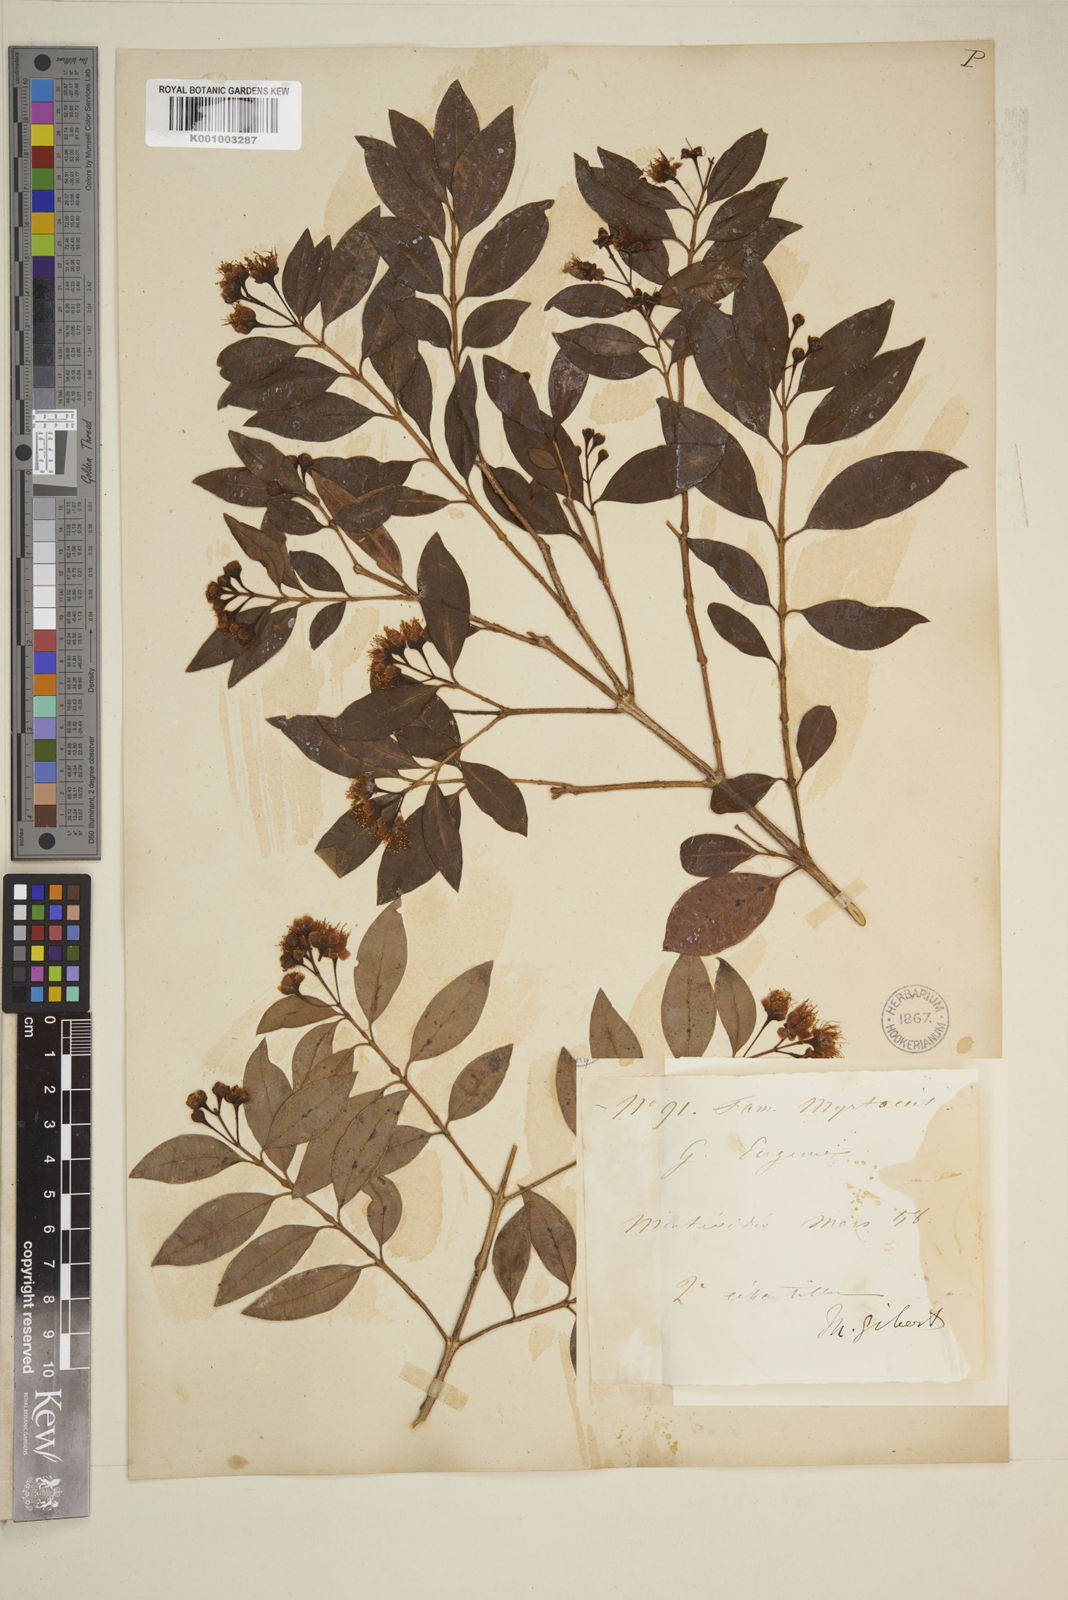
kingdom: Plantae
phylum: Tracheophyta
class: Magnoliopsida
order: Myrtales
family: Myrtaceae
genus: Eugenia
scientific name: Eugenia
